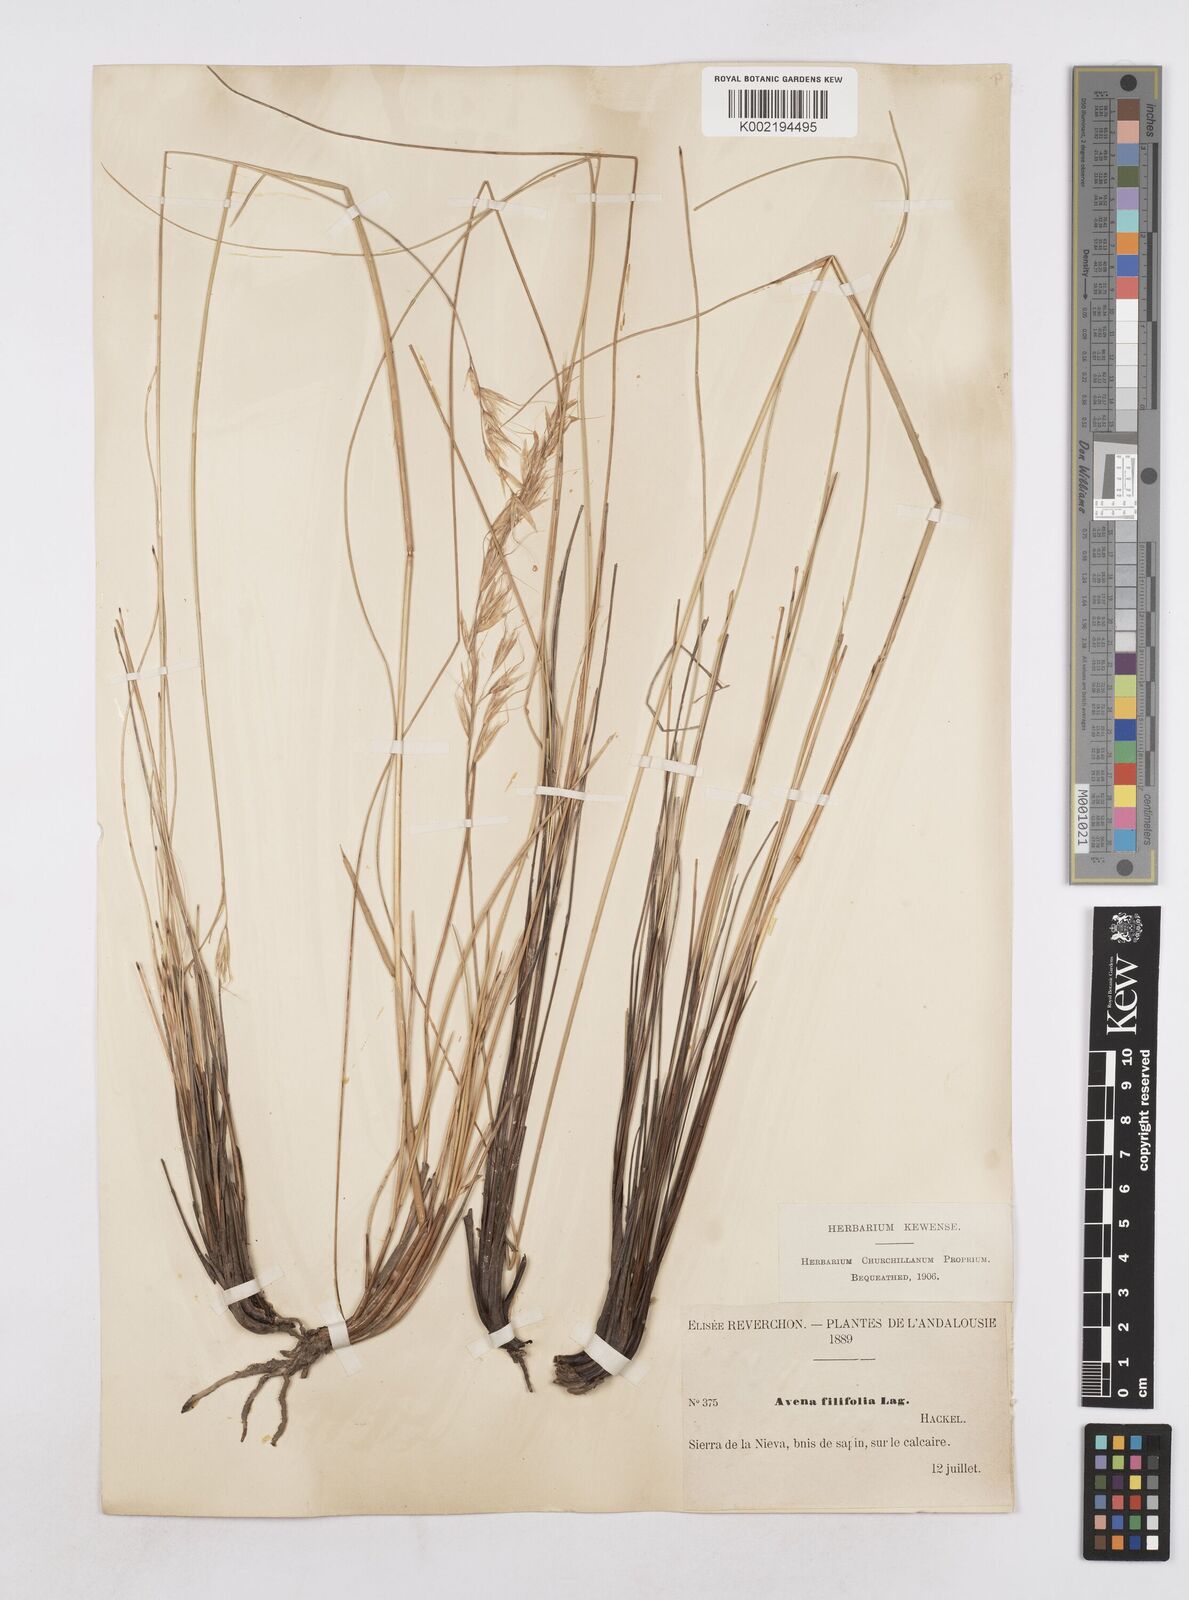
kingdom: Plantae
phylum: Tracheophyta
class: Liliopsida
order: Poales
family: Poaceae
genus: Helictotrichon
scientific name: Helictotrichon filifolium
